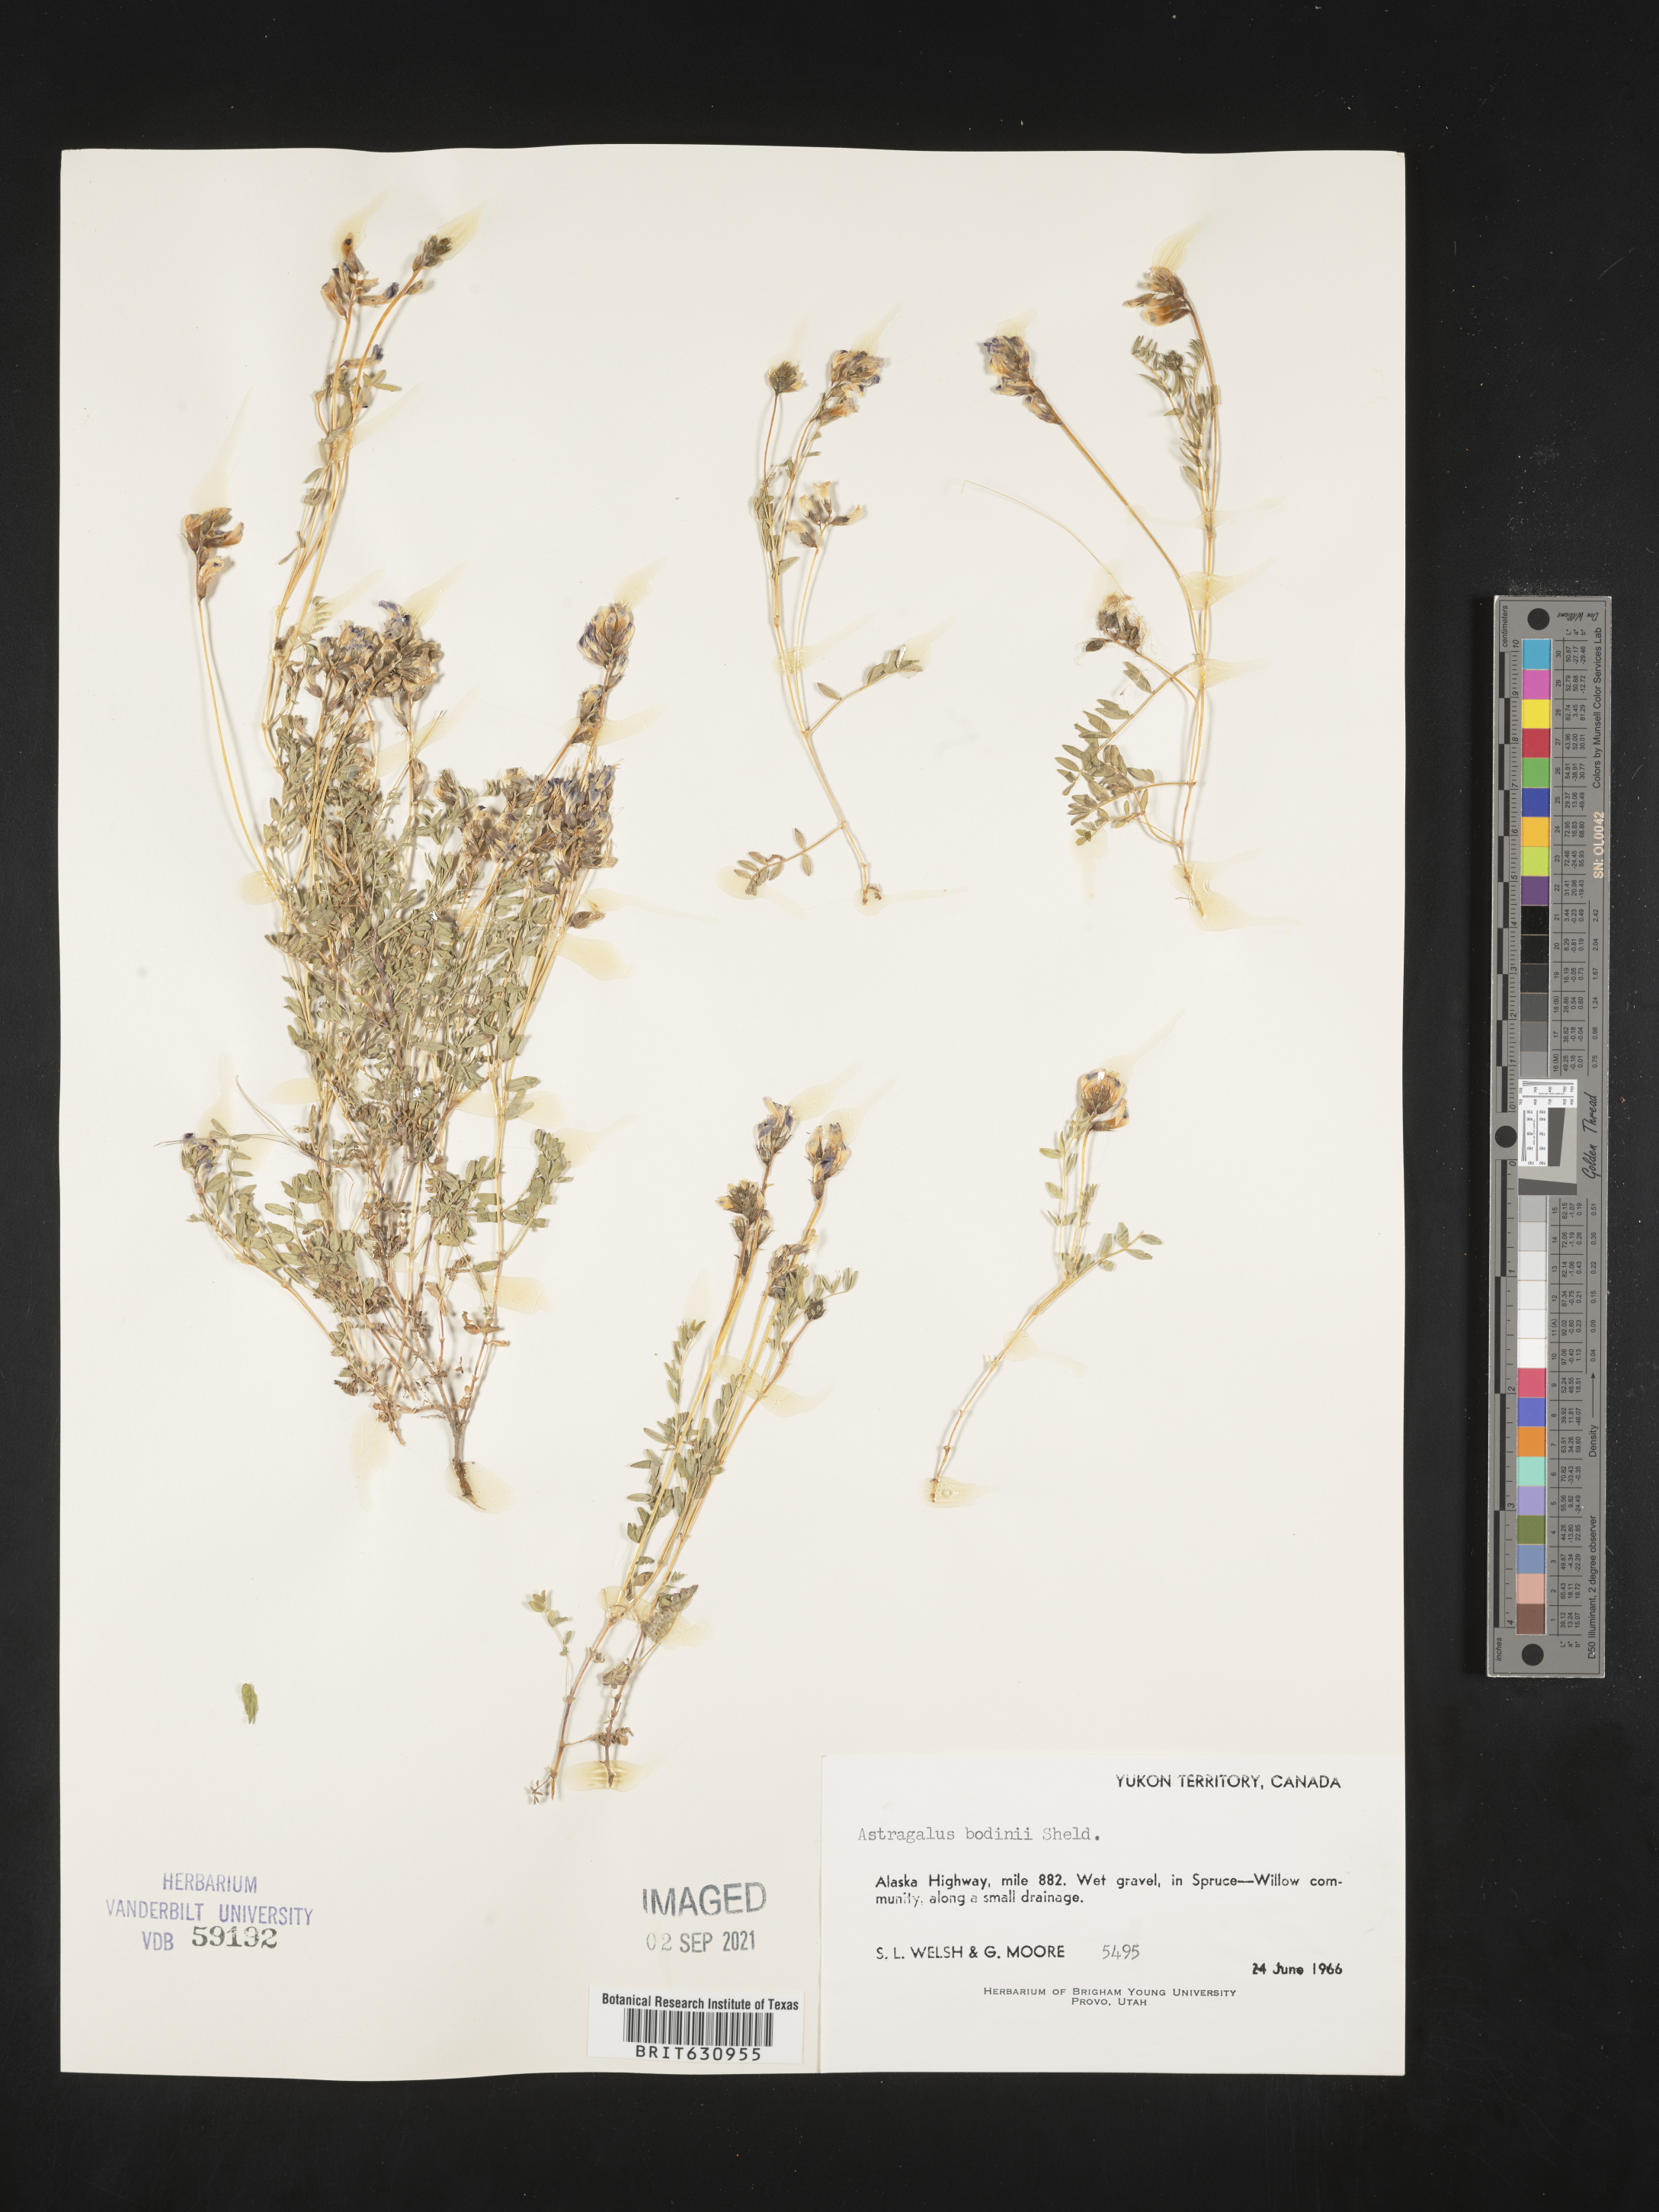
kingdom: Plantae
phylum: Tracheophyta
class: Magnoliopsida
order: Fabales
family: Fabaceae
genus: Astragalus
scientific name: Astragalus
